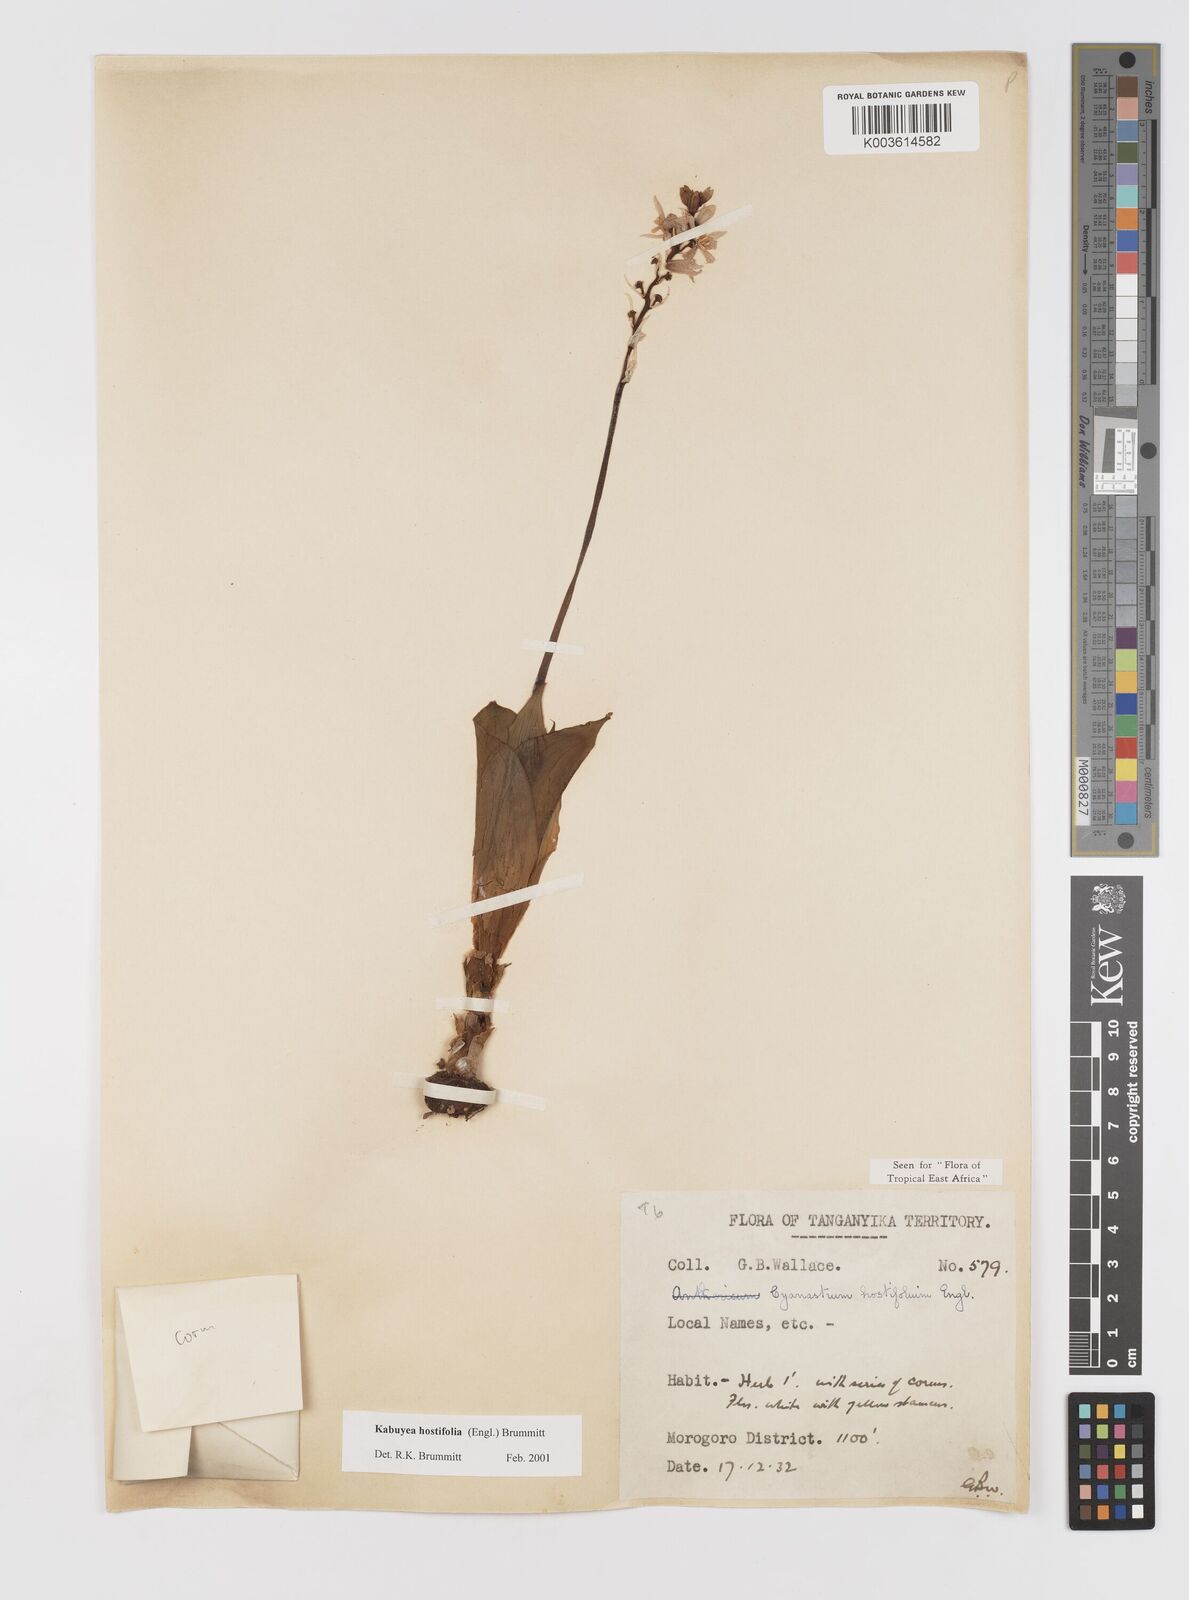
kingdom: Plantae
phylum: Tracheophyta
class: Liliopsida
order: Asparagales
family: Tecophilaeaceae
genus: Kabuyea
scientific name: Kabuyea hostifolia
